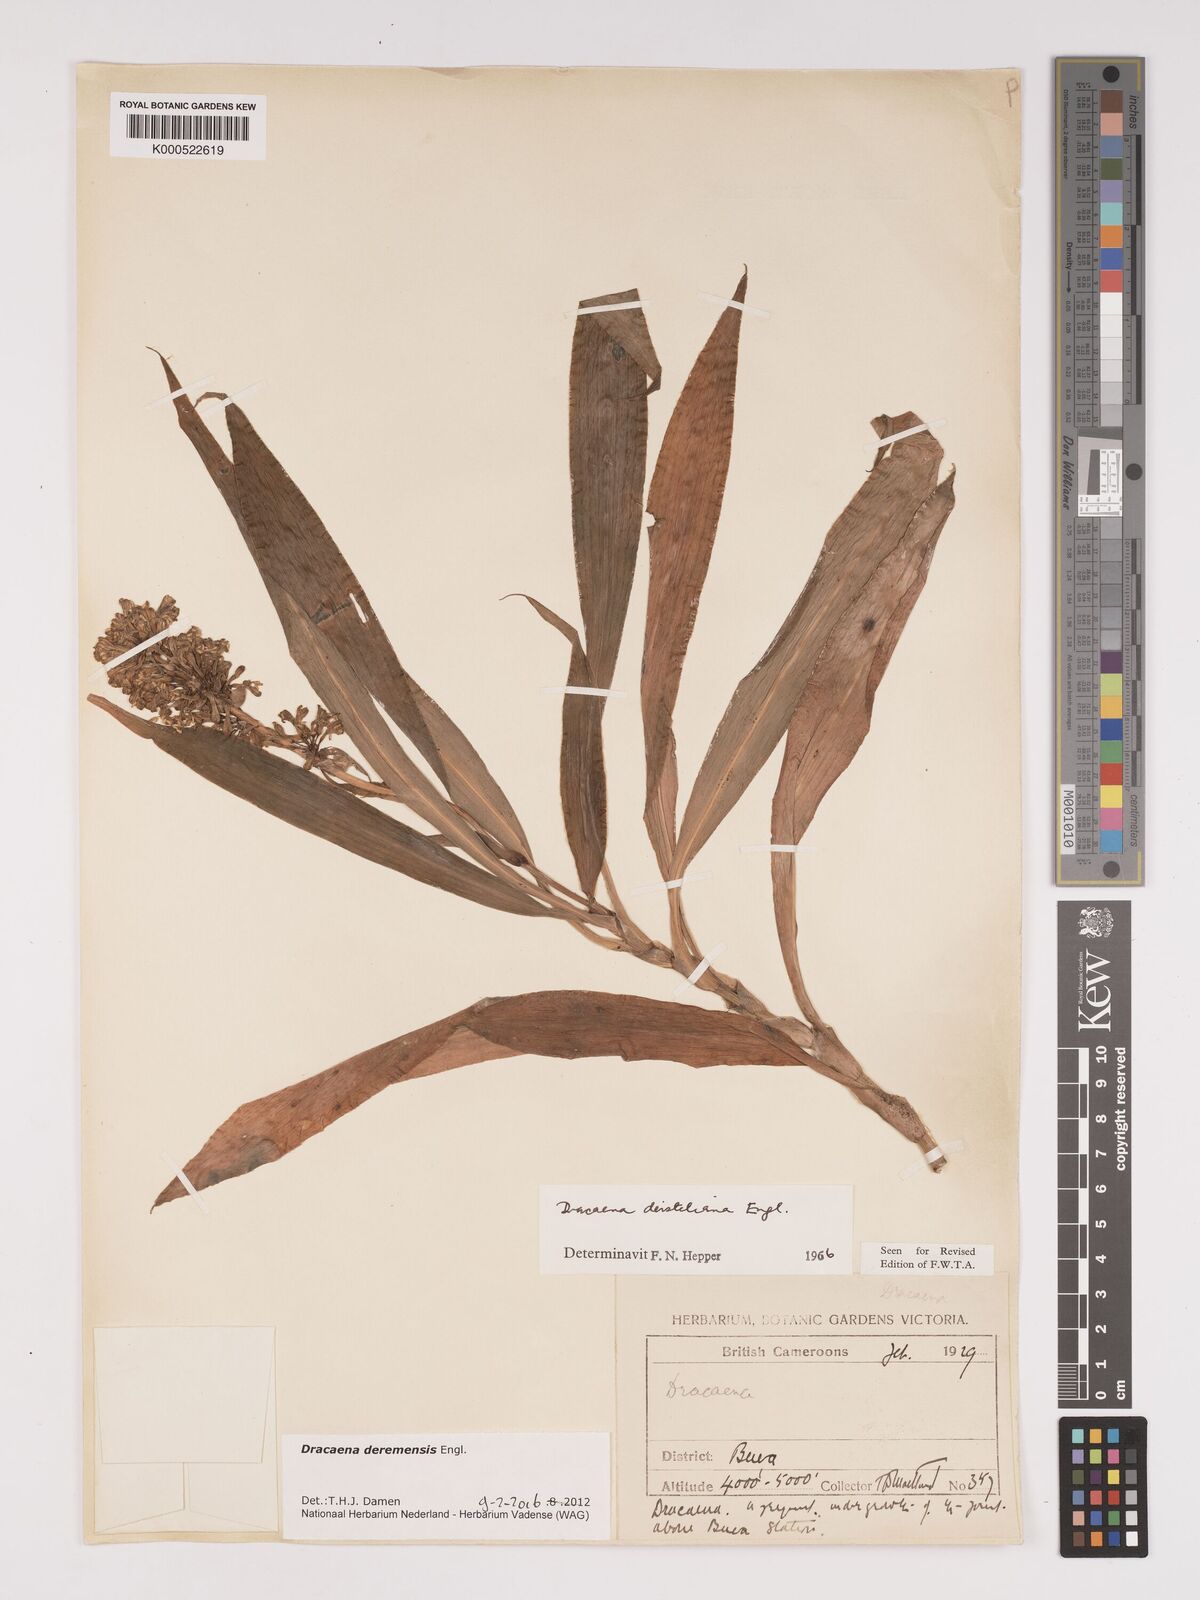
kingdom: Plantae
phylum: Tracheophyta
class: Liliopsida
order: Asparagales
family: Asparagaceae
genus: Dracaena
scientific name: Dracaena fragrans
